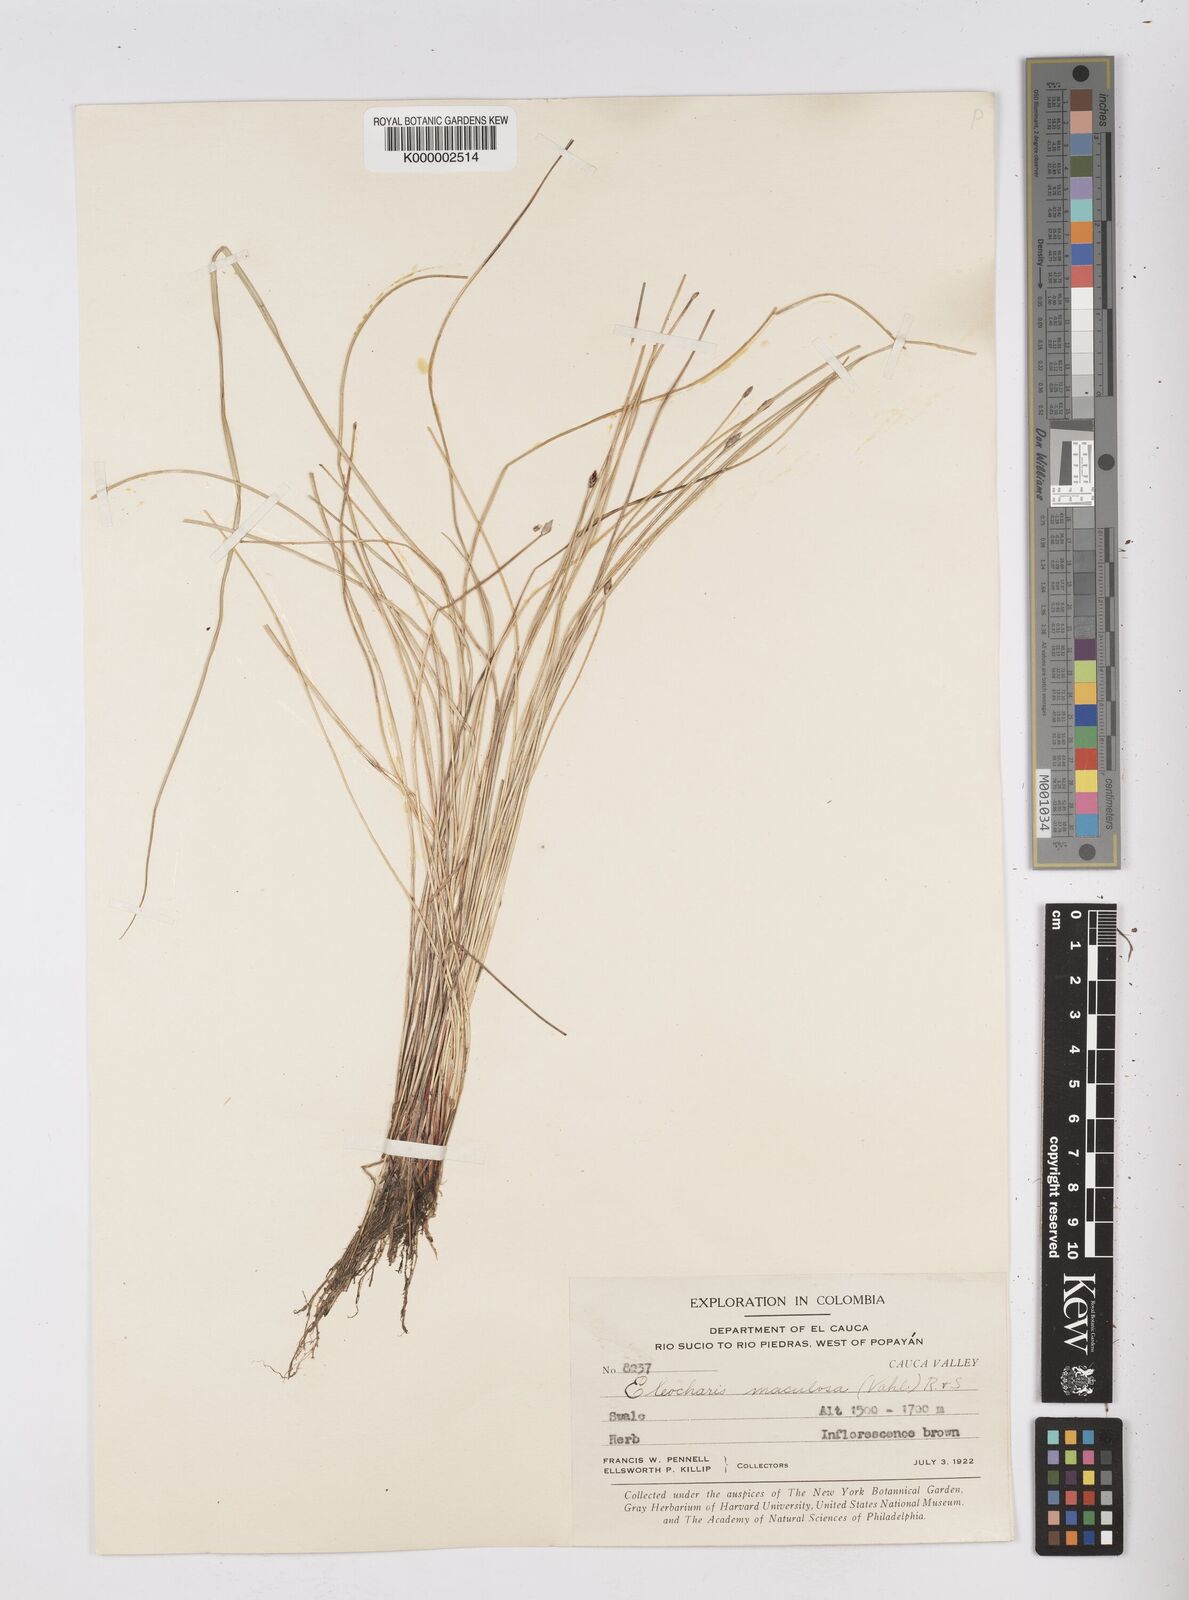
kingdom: Plantae
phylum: Tracheophyta
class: Liliopsida
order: Poales
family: Cyperaceae
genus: Eleocharis
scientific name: Eleocharis maculosa
